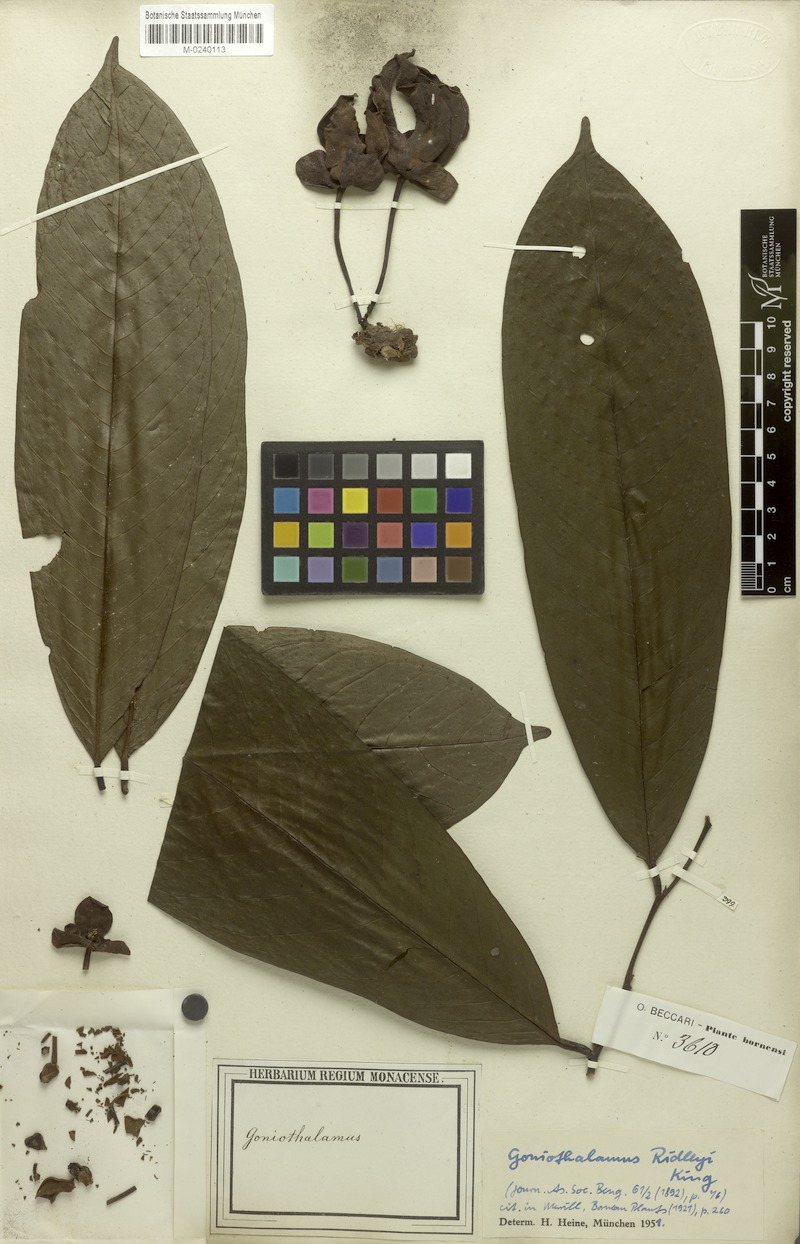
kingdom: Plantae
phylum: Tracheophyta
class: Magnoliopsida
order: Magnoliales
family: Annonaceae
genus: Goniothalamus
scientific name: Goniothalamus ridleyi
